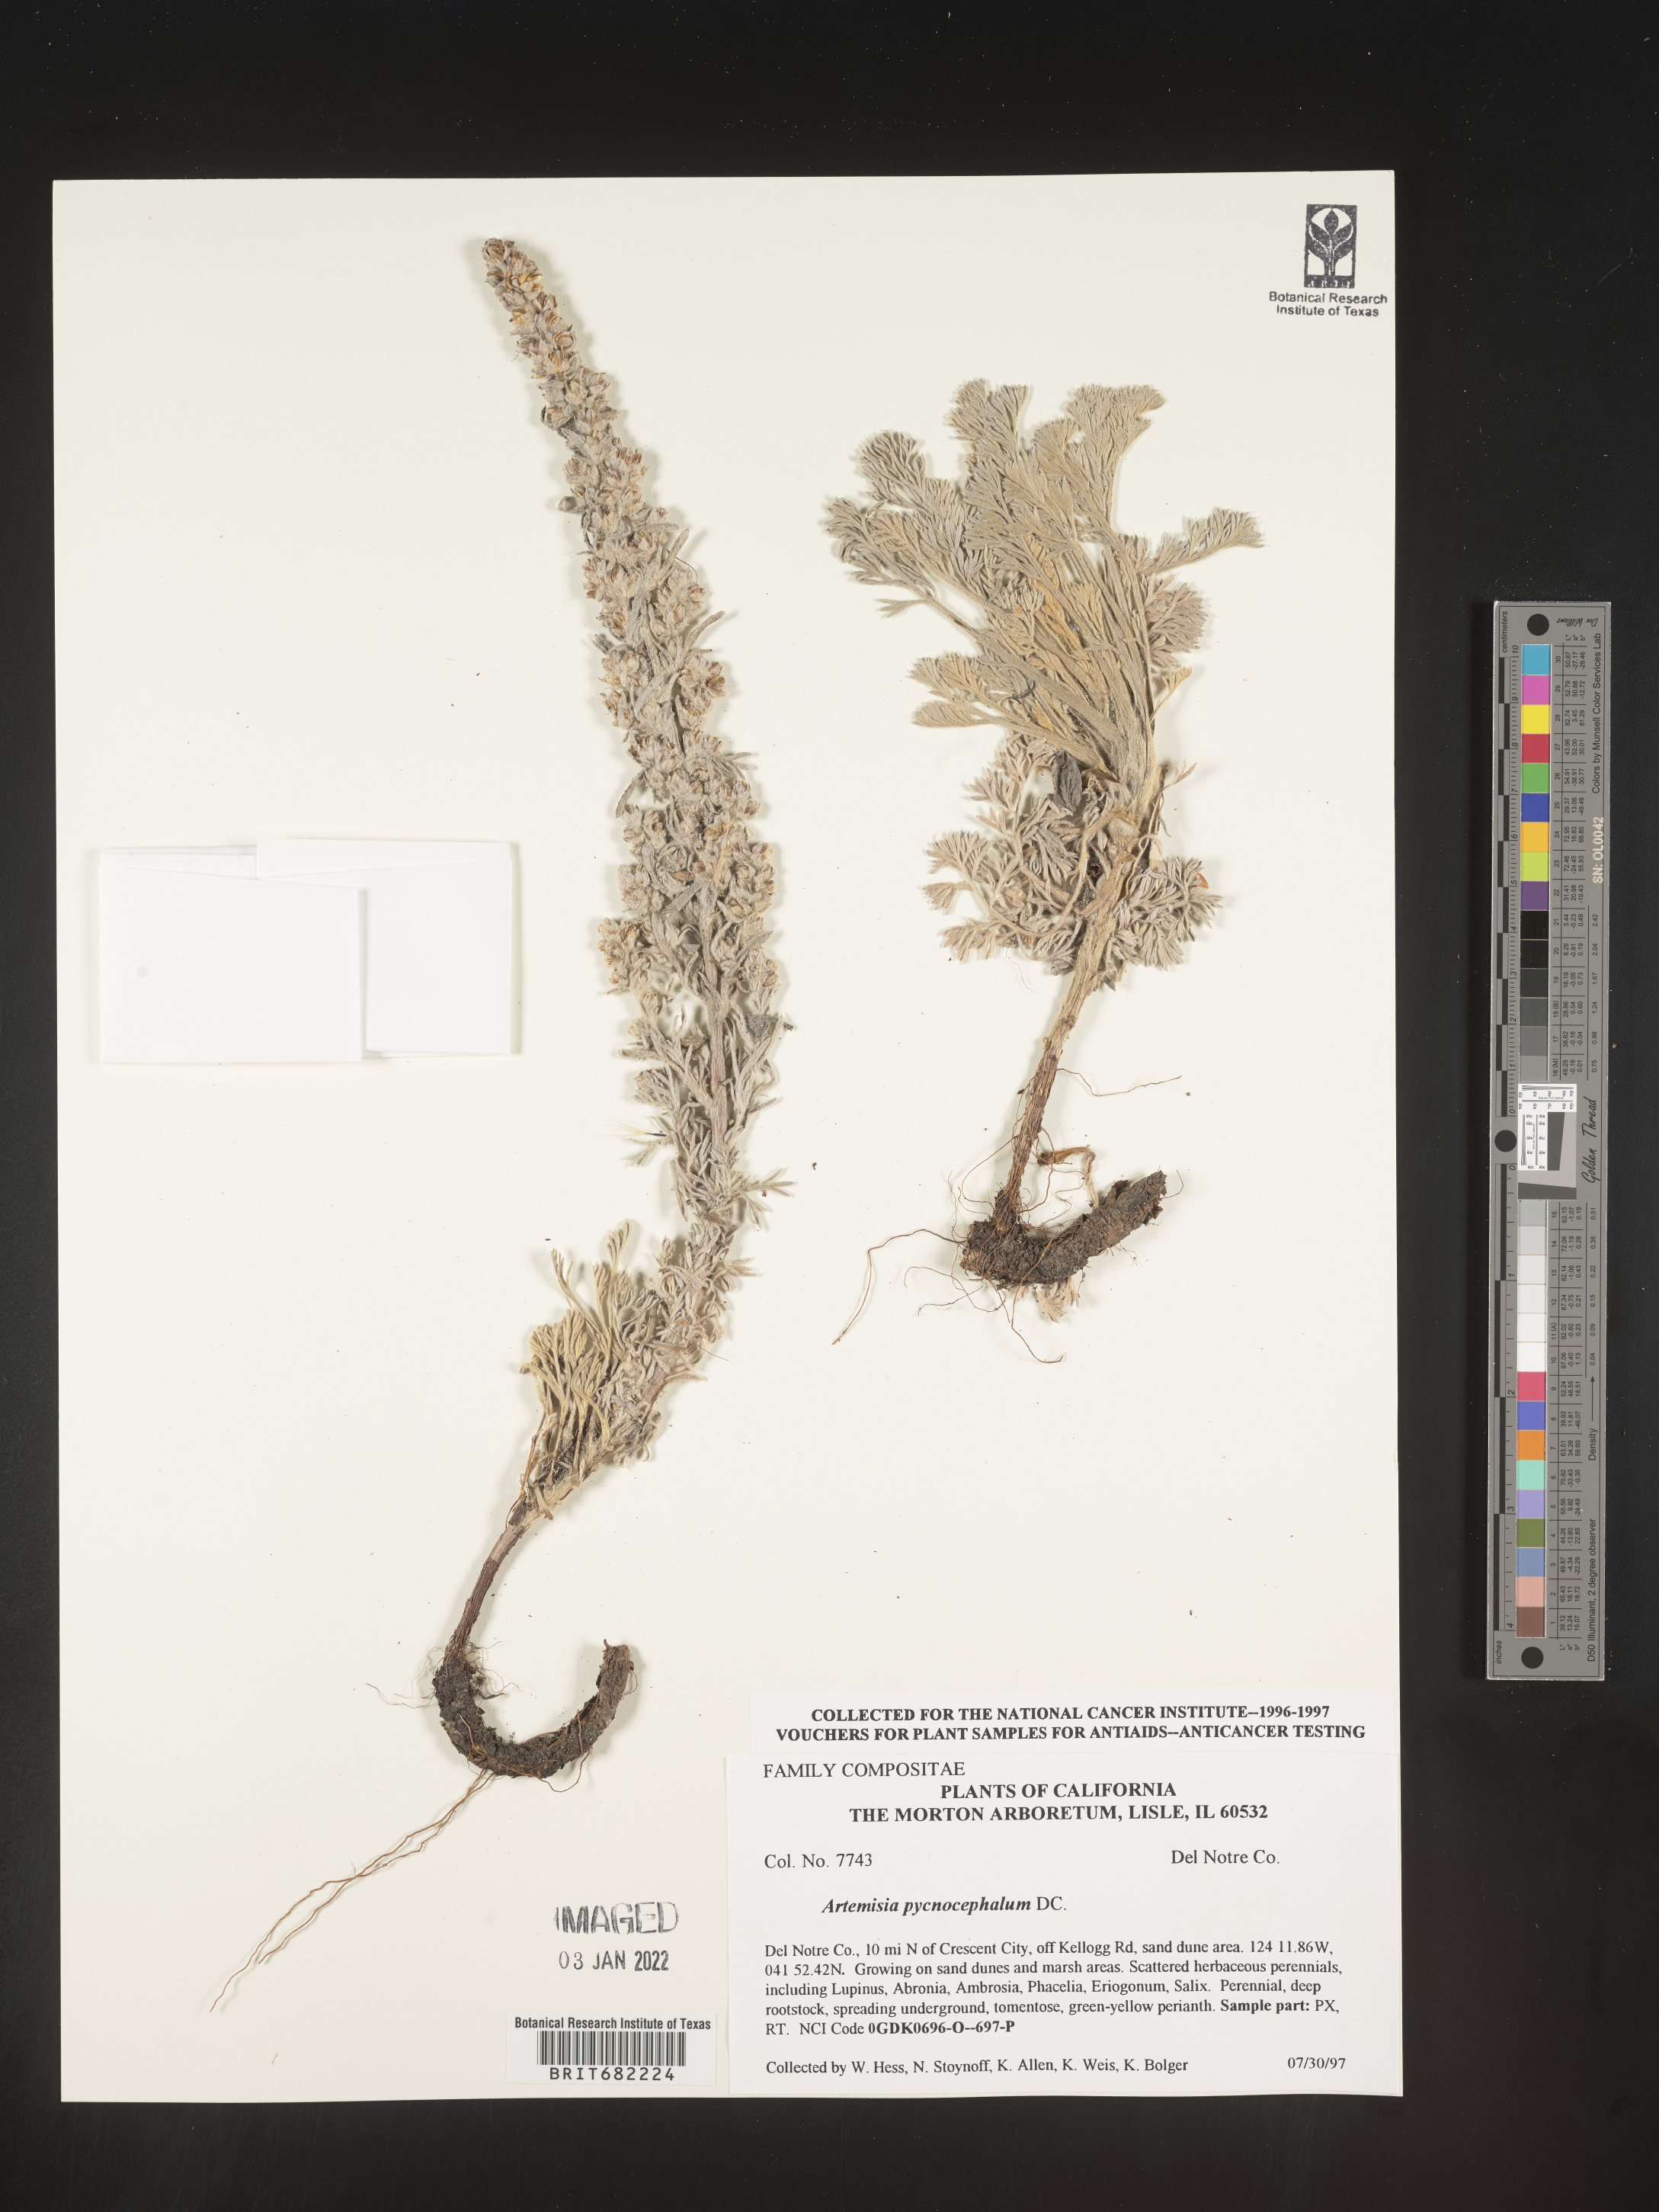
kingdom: Plantae
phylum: Tracheophyta
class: Magnoliopsida
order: Asterales
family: Asteraceae
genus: Artemisia
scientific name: Artemisia pycnocephala
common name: Coastal sagewort
